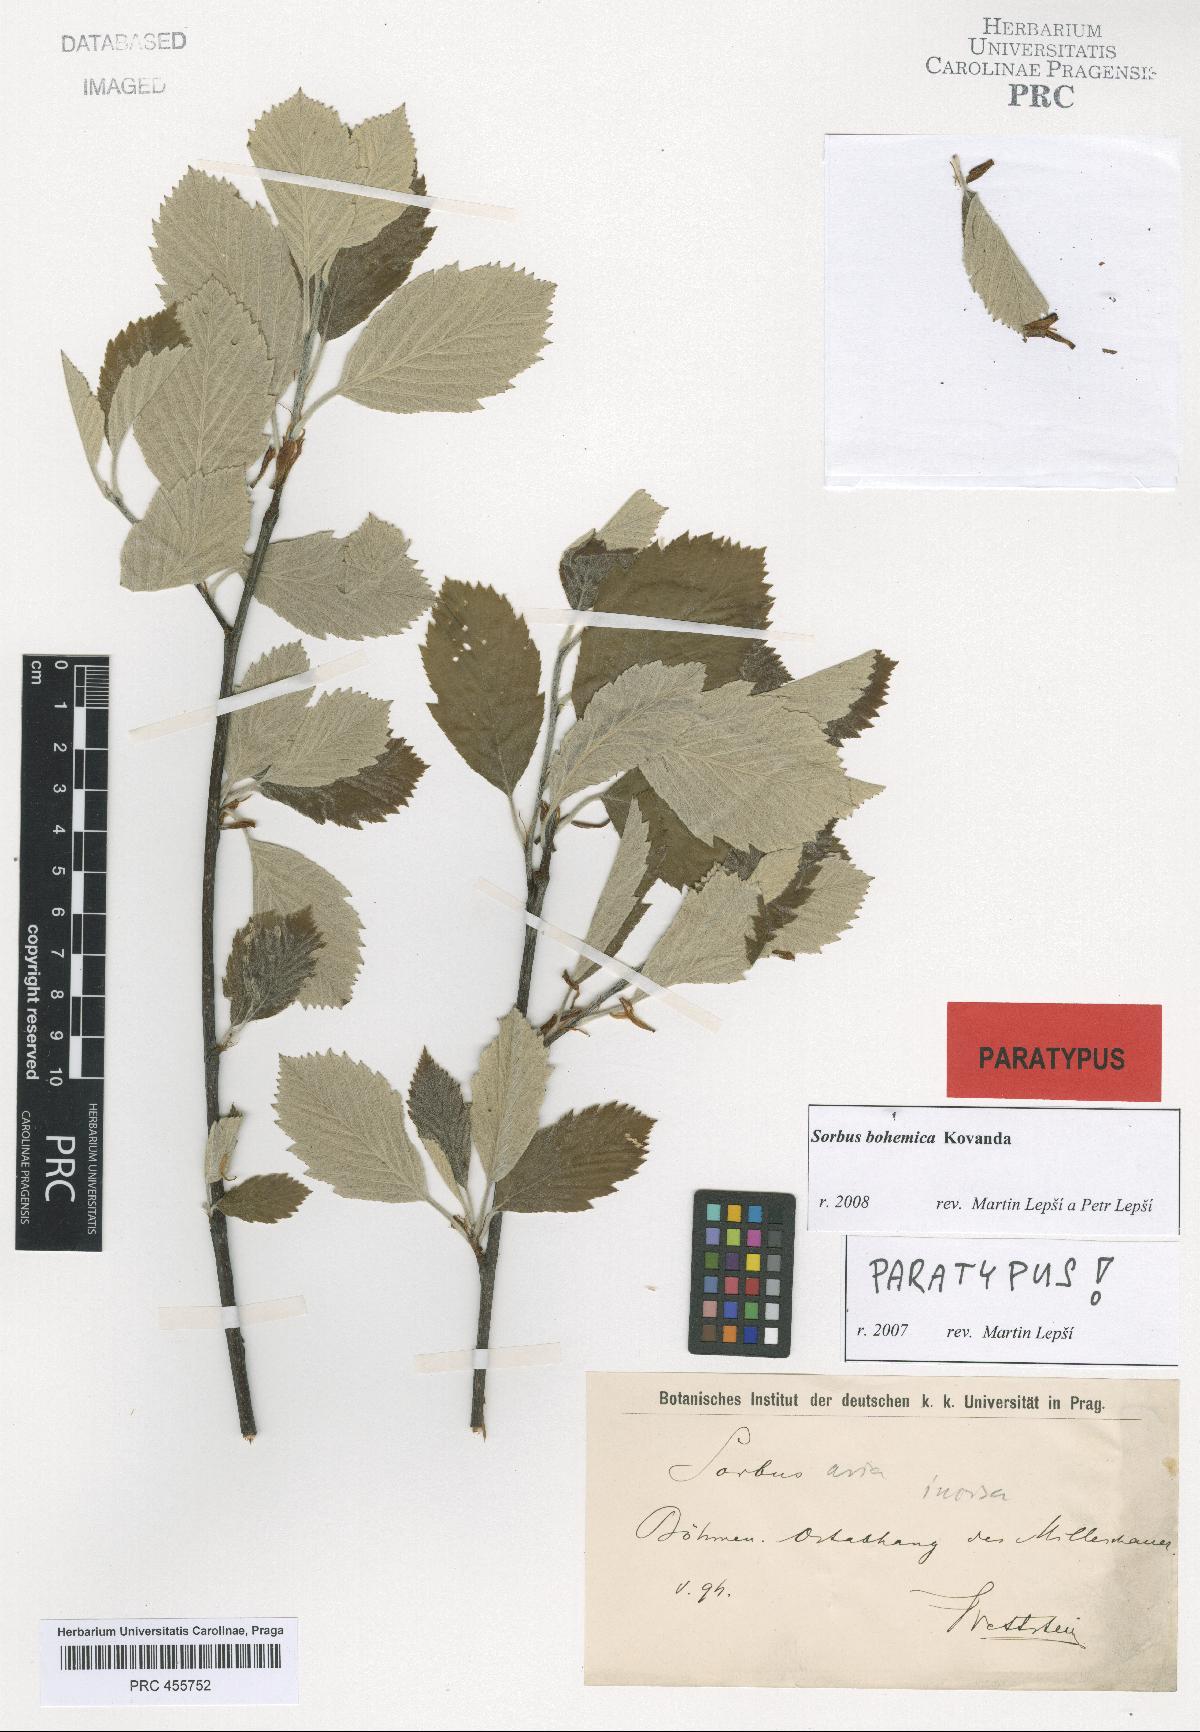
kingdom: Plantae
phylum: Tracheophyta
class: Magnoliopsida
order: Rosales
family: Rosaceae
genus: Karpatiosorbus
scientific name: Karpatiosorbus bohemica
